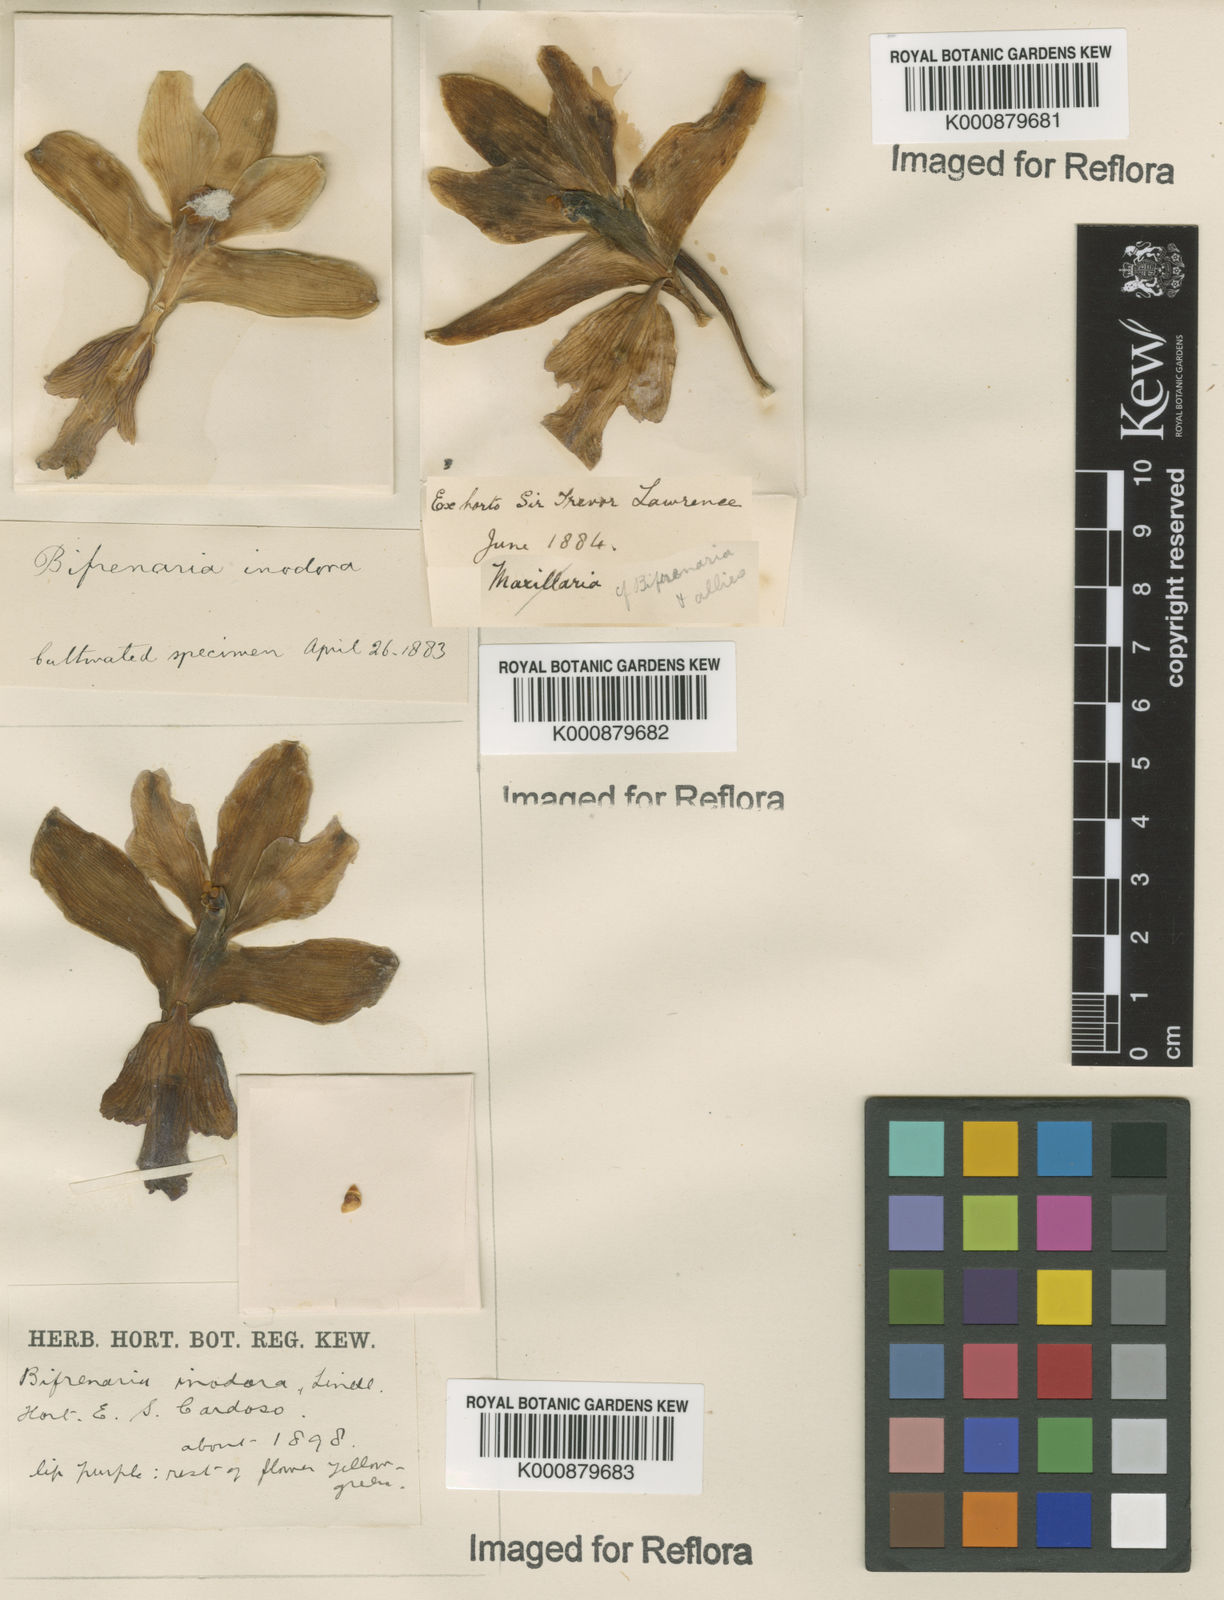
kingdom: Plantae
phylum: Tracheophyta
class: Liliopsida
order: Asparagales
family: Orchidaceae
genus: Bifrenaria
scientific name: Bifrenaria inodora
